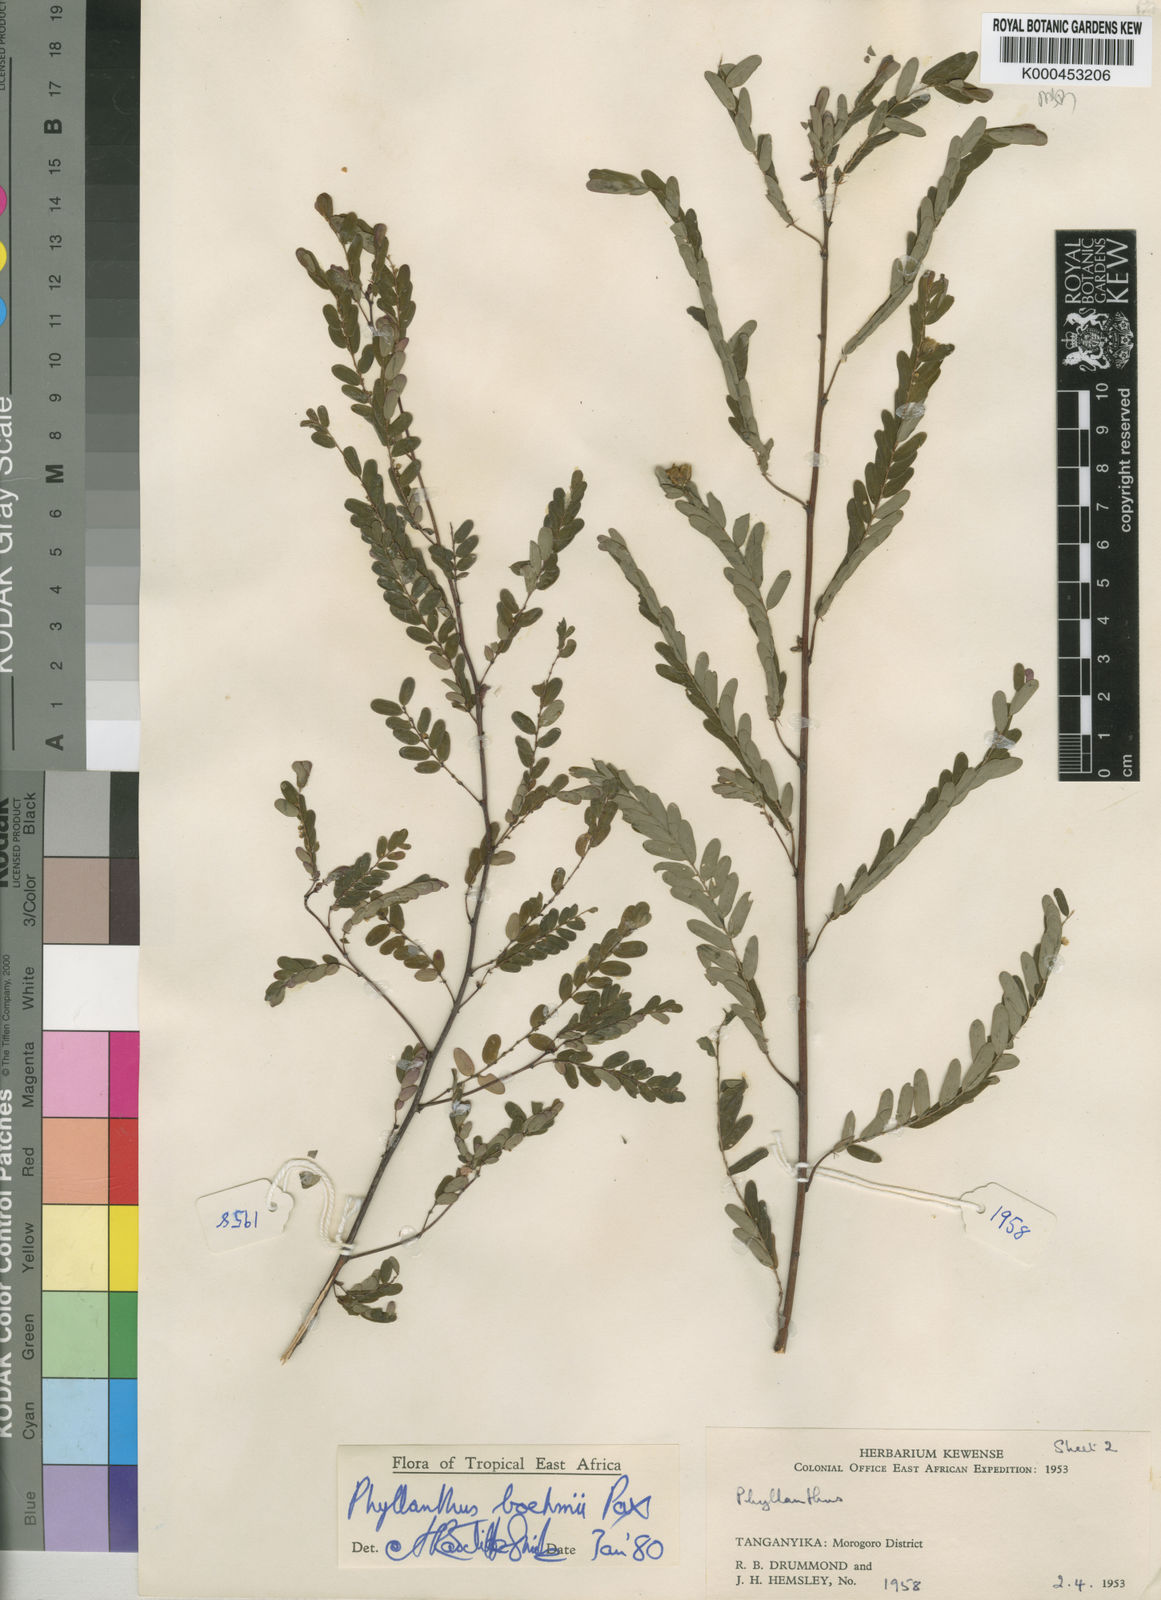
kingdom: Plantae
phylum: Tracheophyta
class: Magnoliopsida
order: Malpighiales
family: Phyllanthaceae
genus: Phyllanthus
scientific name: Phyllanthus boehmii
